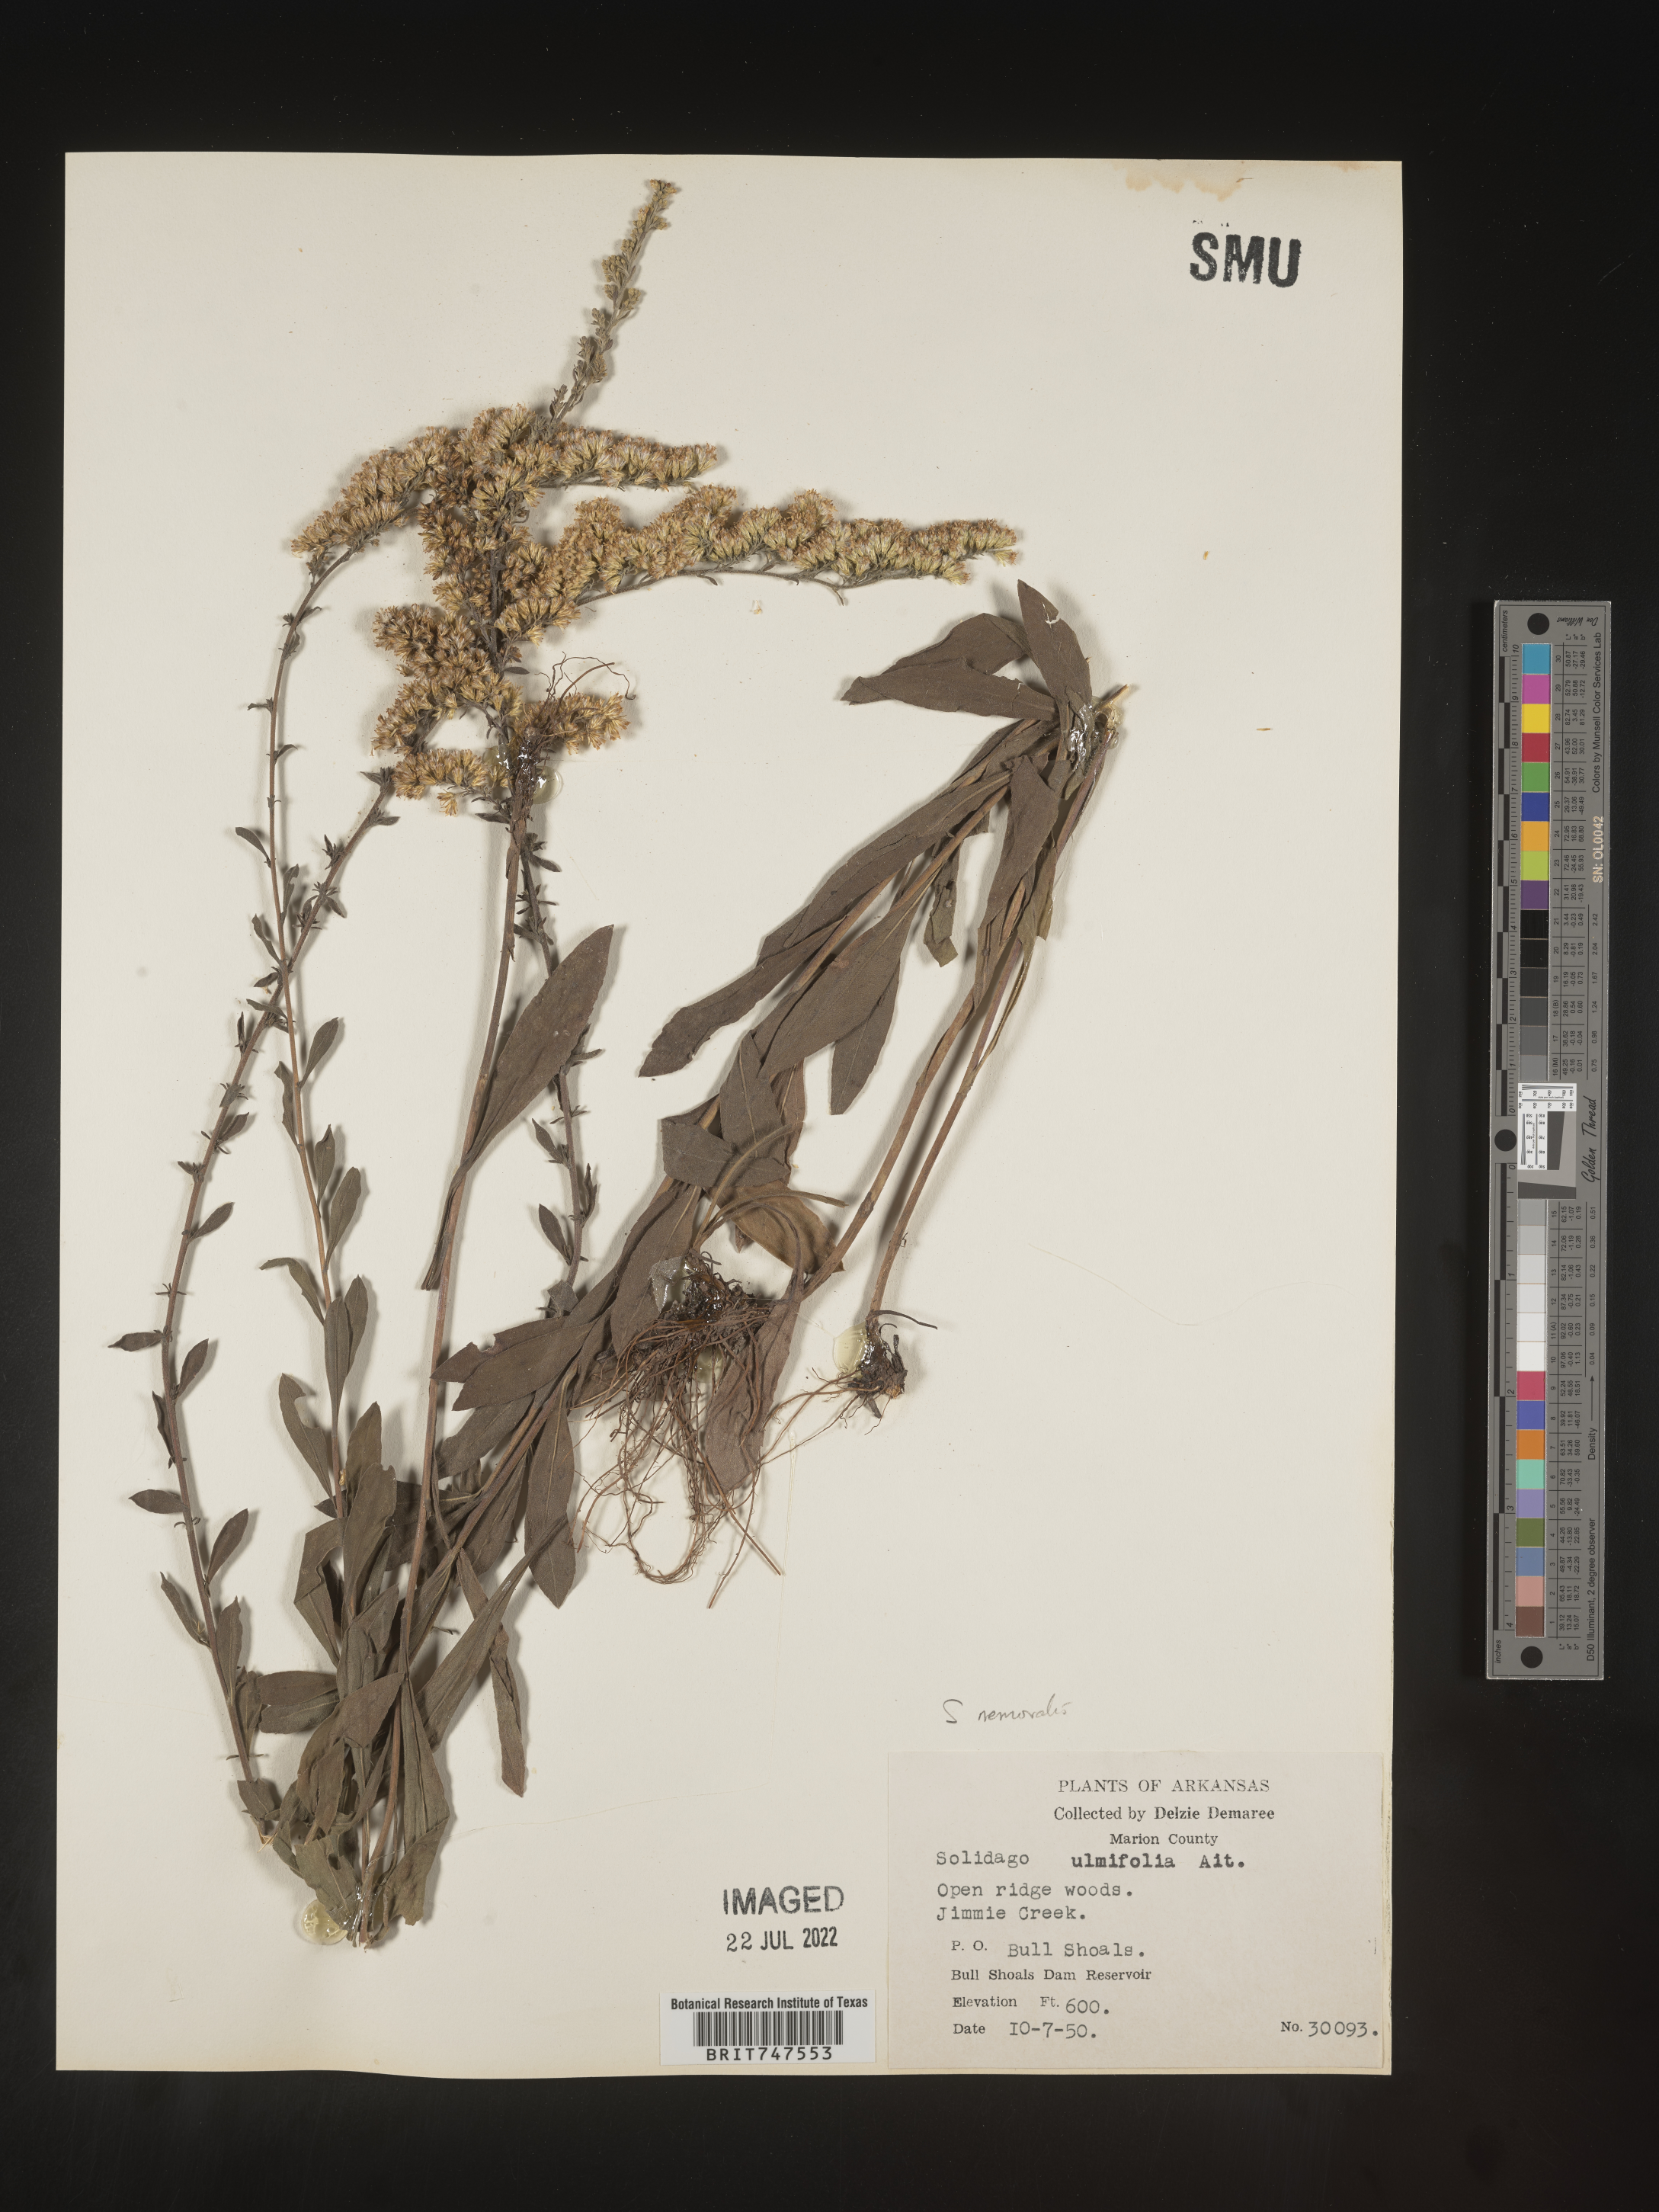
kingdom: Plantae
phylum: Tracheophyta
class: Magnoliopsida
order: Asterales
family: Asteraceae
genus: Solidago
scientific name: Solidago nemoralis
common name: Grey goldenrod
